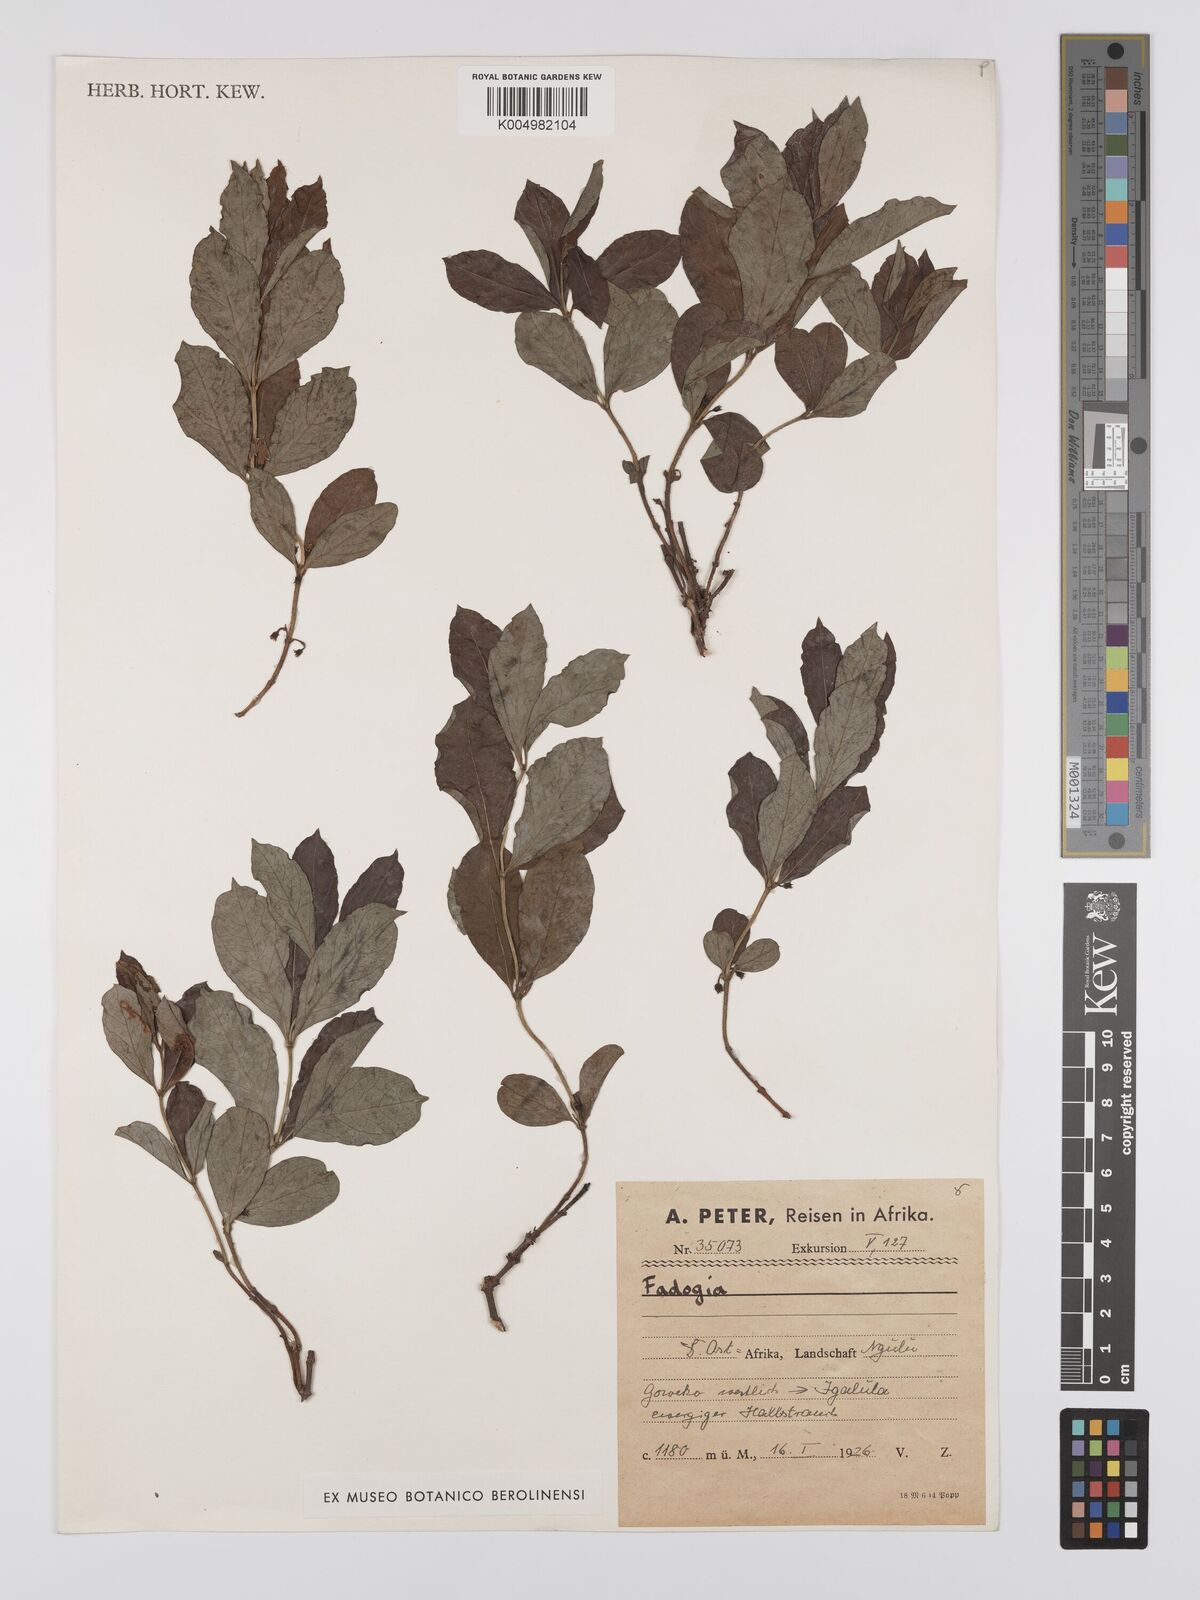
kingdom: Plantae
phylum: Tracheophyta
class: Magnoliopsida
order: Gentianales
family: Rubiaceae
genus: Fadogia
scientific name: Fadogia
